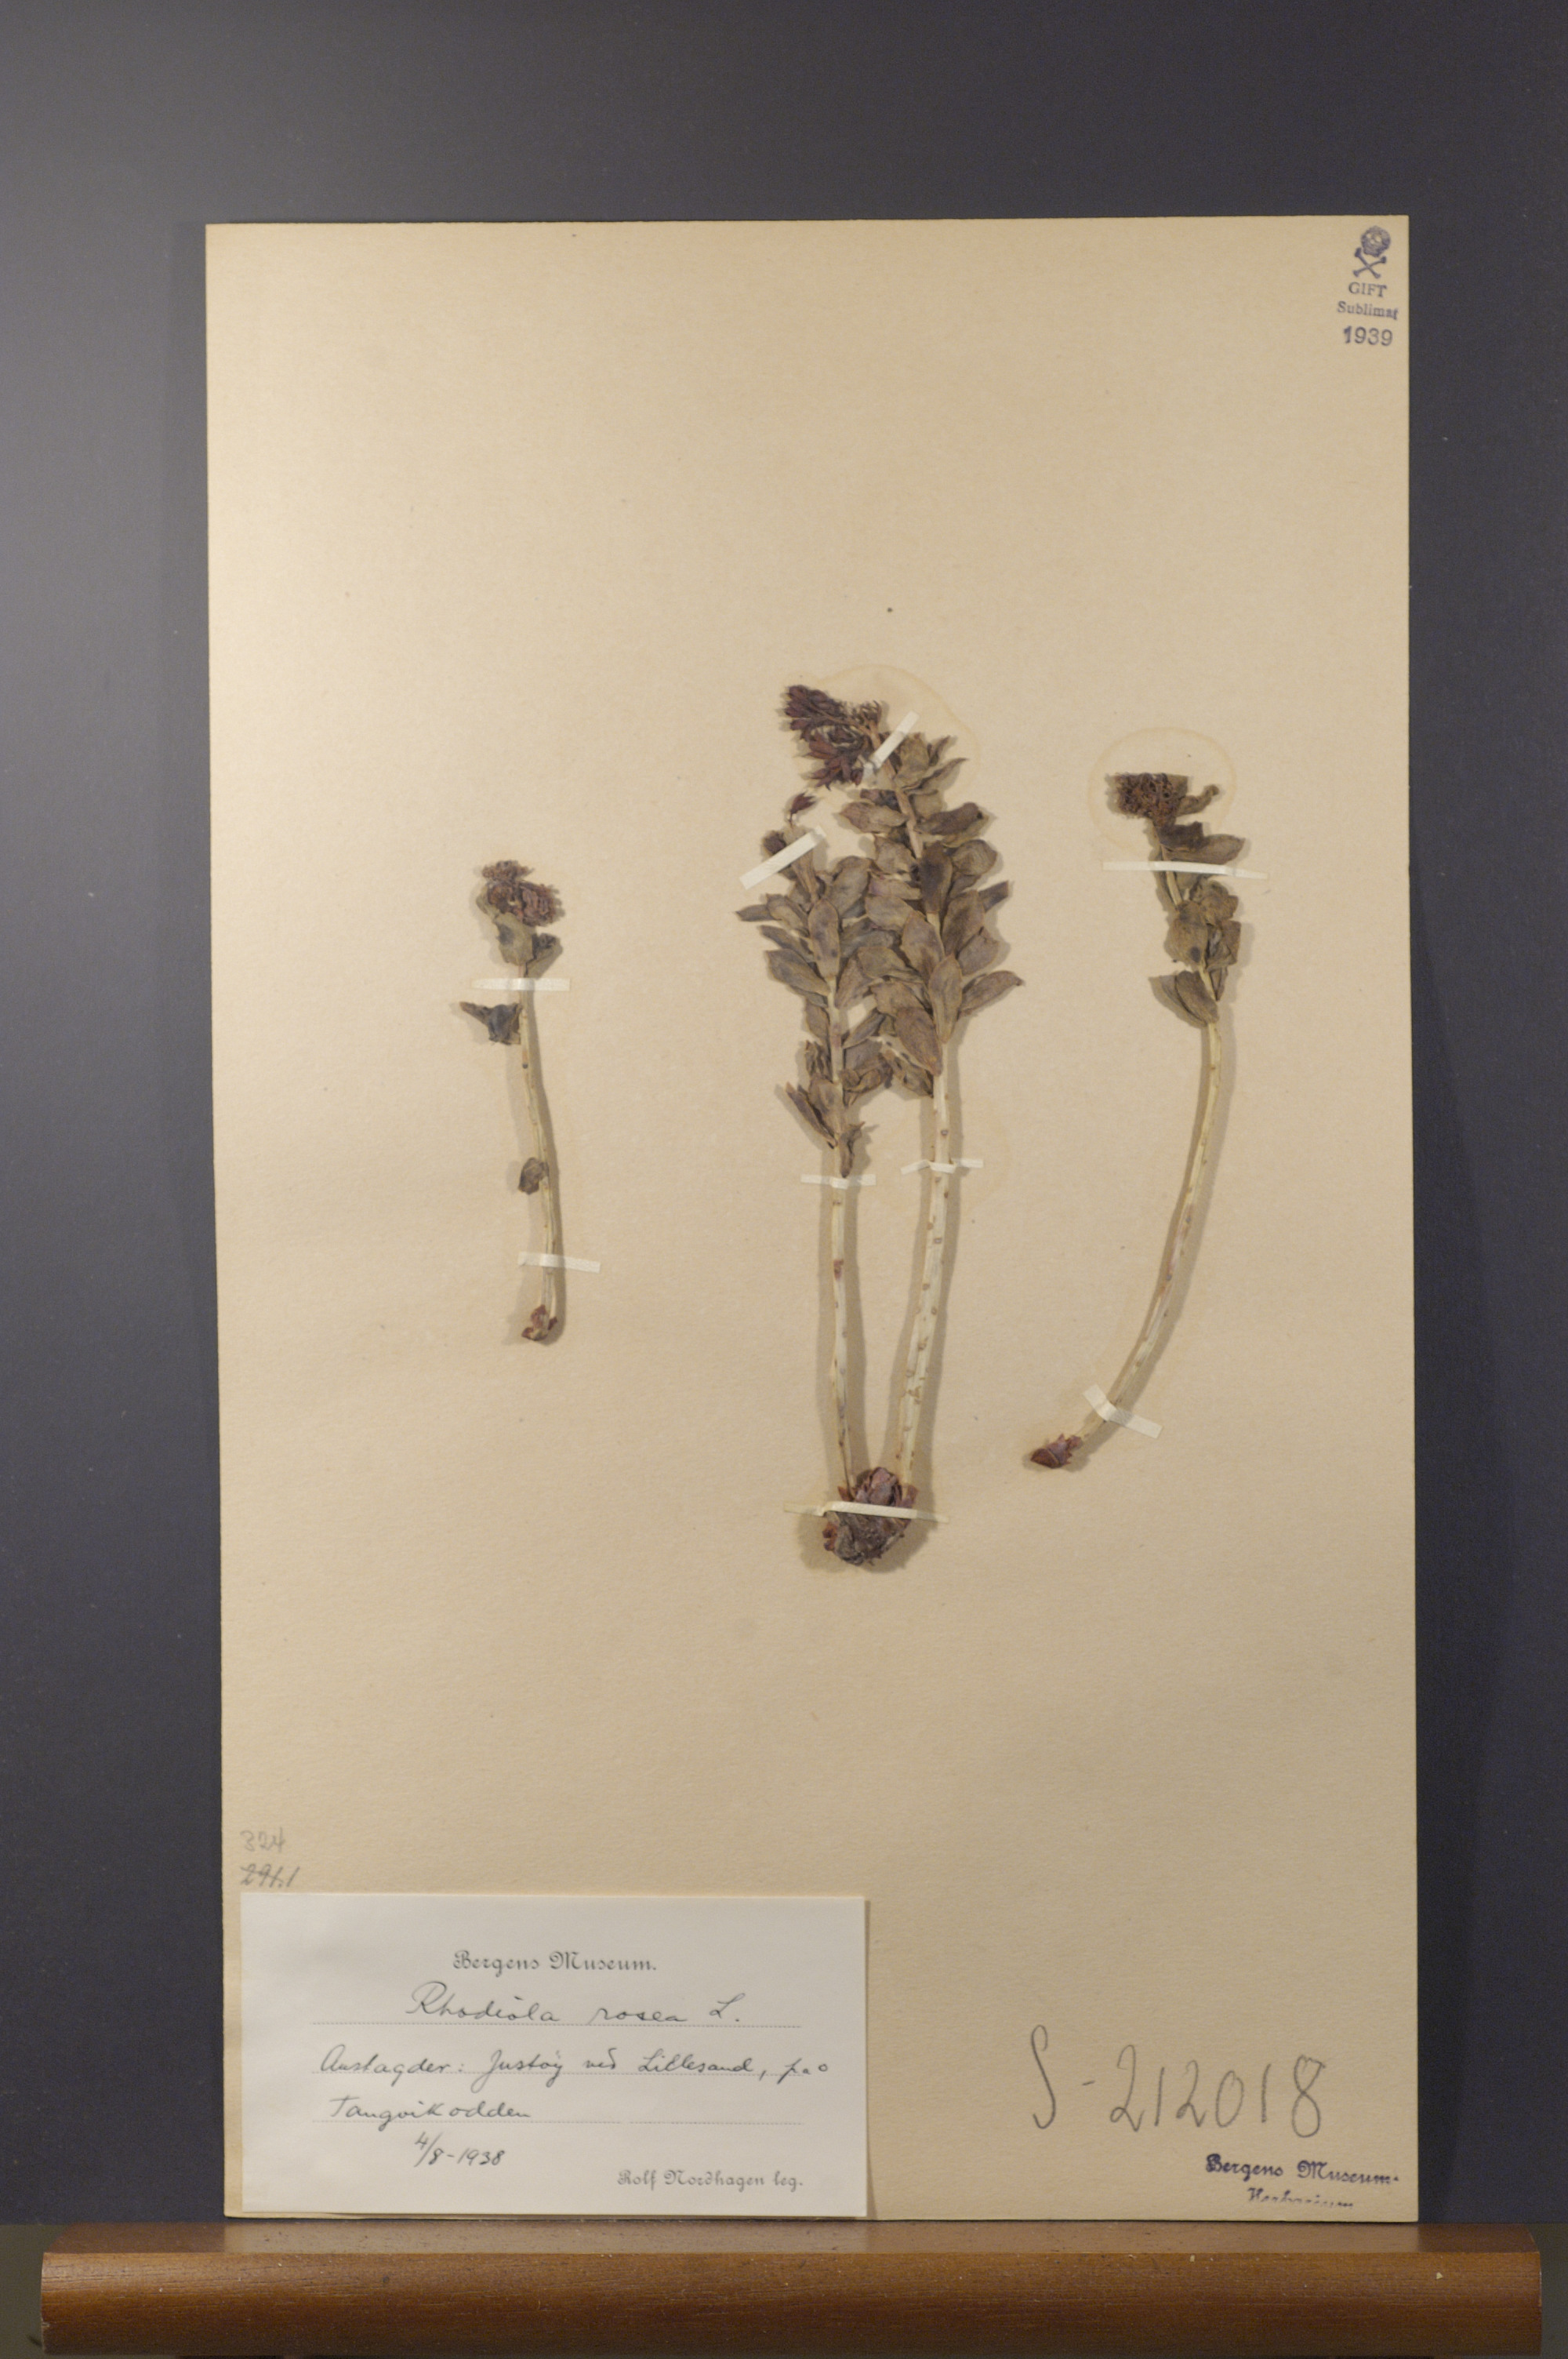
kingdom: Plantae
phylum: Tracheophyta
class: Magnoliopsida
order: Saxifragales
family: Crassulaceae
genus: Rhodiola
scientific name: Rhodiola rosea
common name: Roseroot
